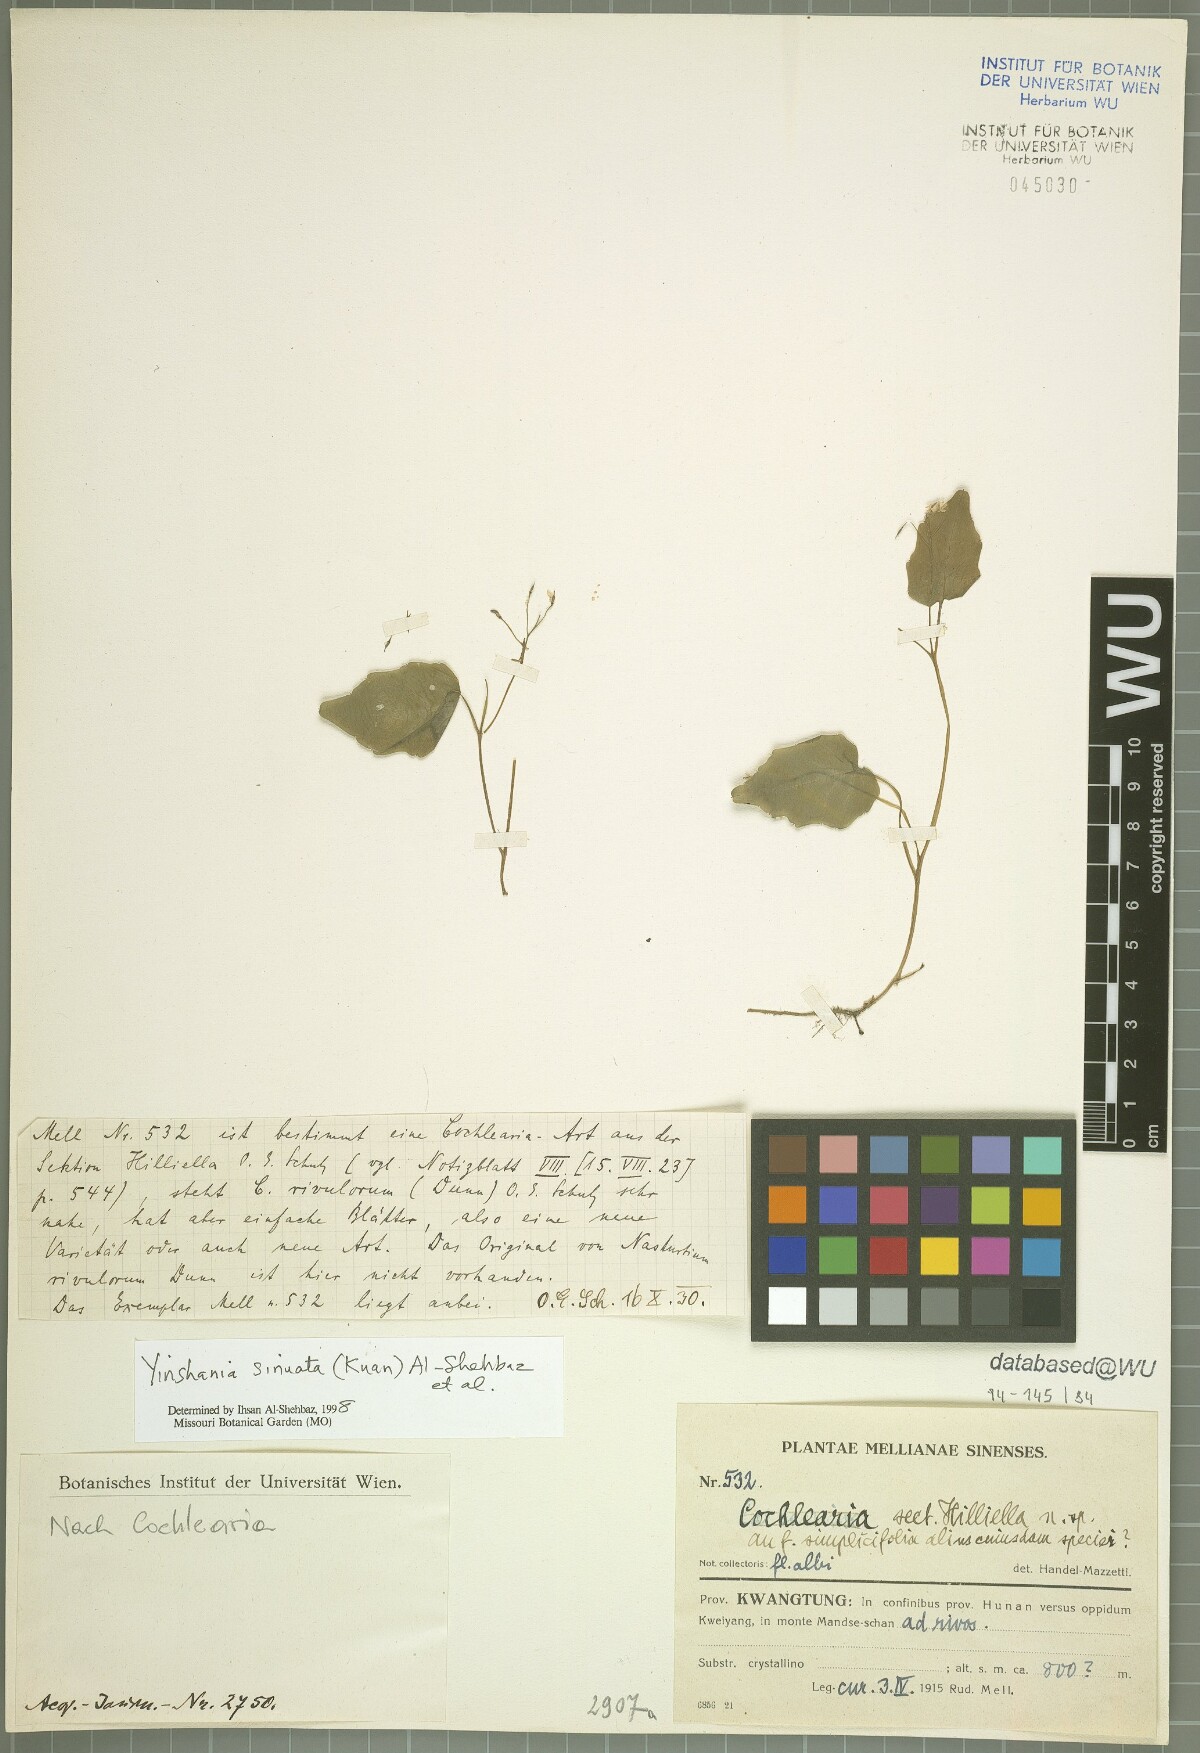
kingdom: Plantae
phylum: Tracheophyta
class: Magnoliopsida
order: Brassicales
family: Brassicaceae
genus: Hilliella
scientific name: Hilliella sinuata
